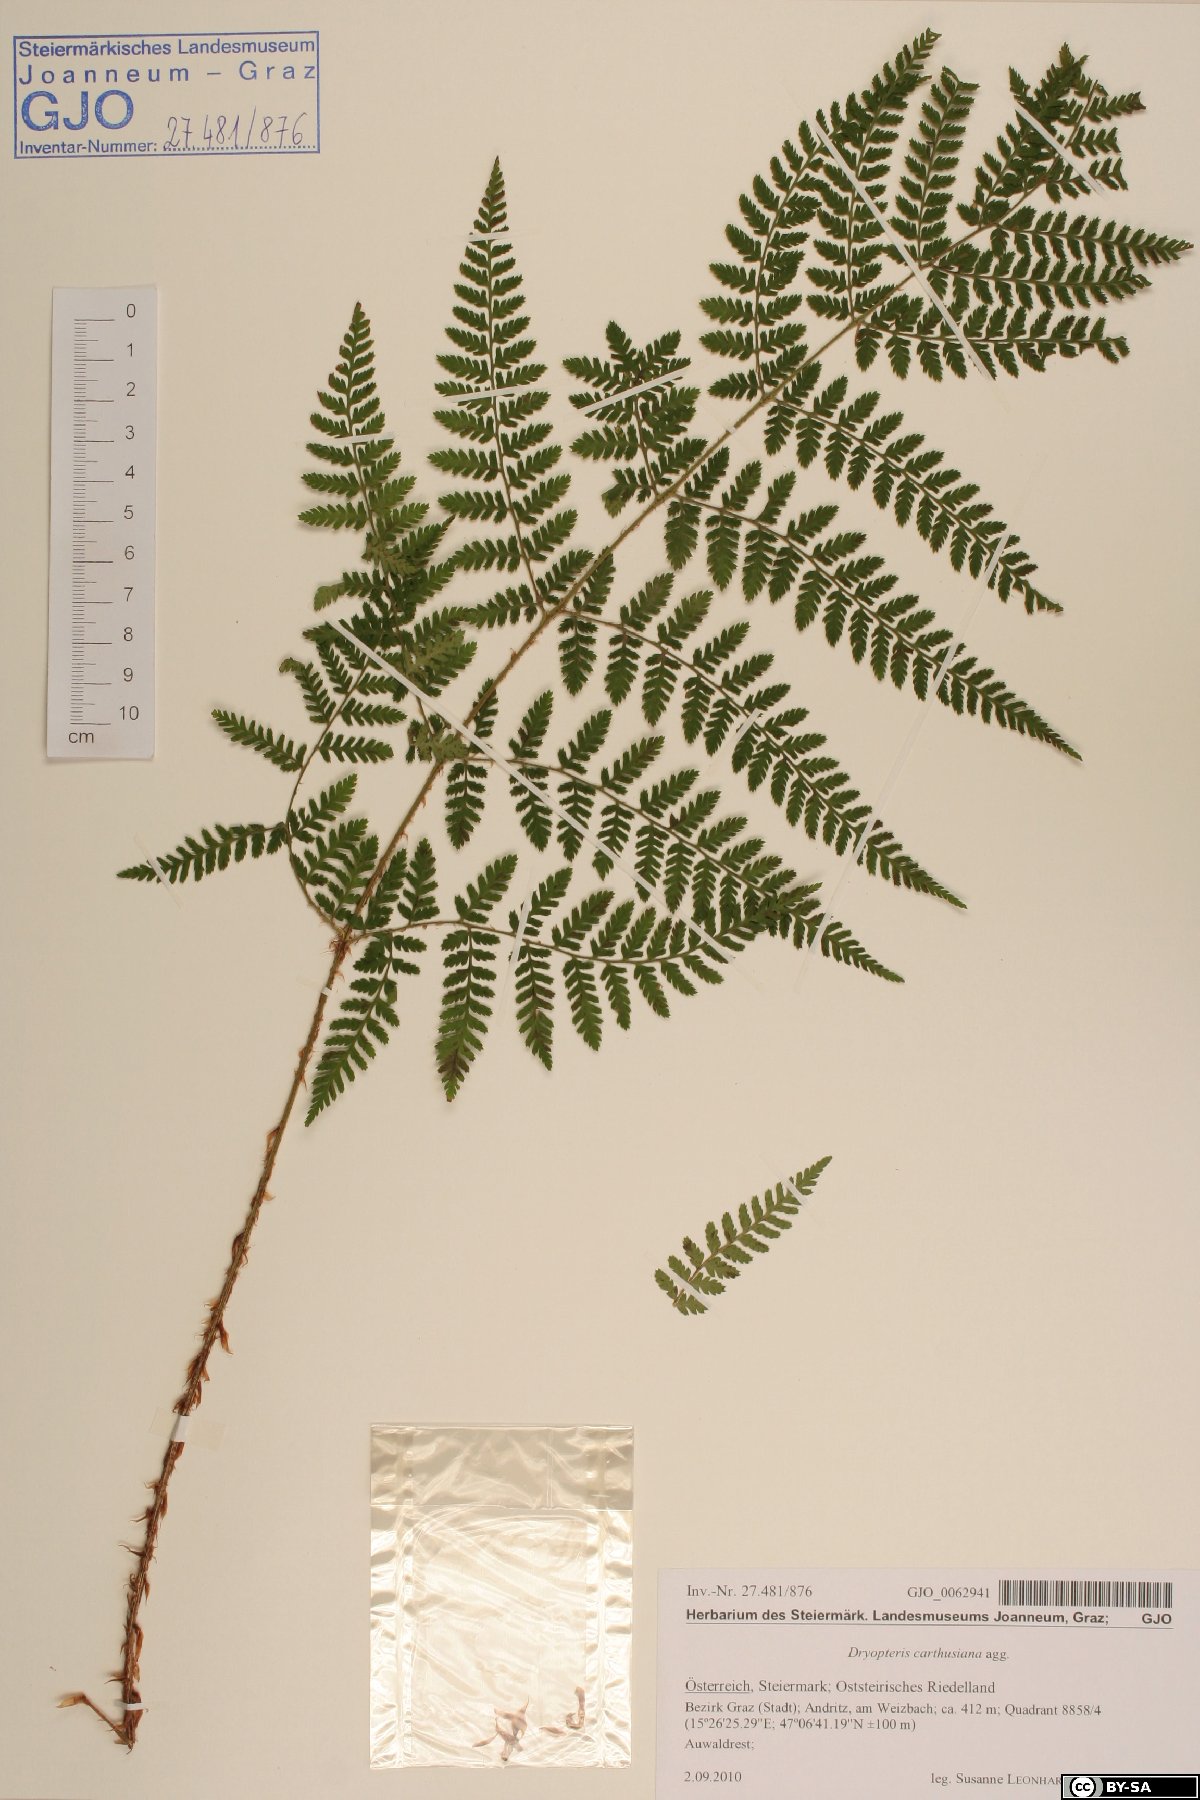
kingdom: Plantae
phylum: Tracheophyta
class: Polypodiopsida
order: Polypodiales
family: Dryopteridaceae
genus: Dryopteris
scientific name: Dryopteris carthusiana
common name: Narrow buckler-fern
